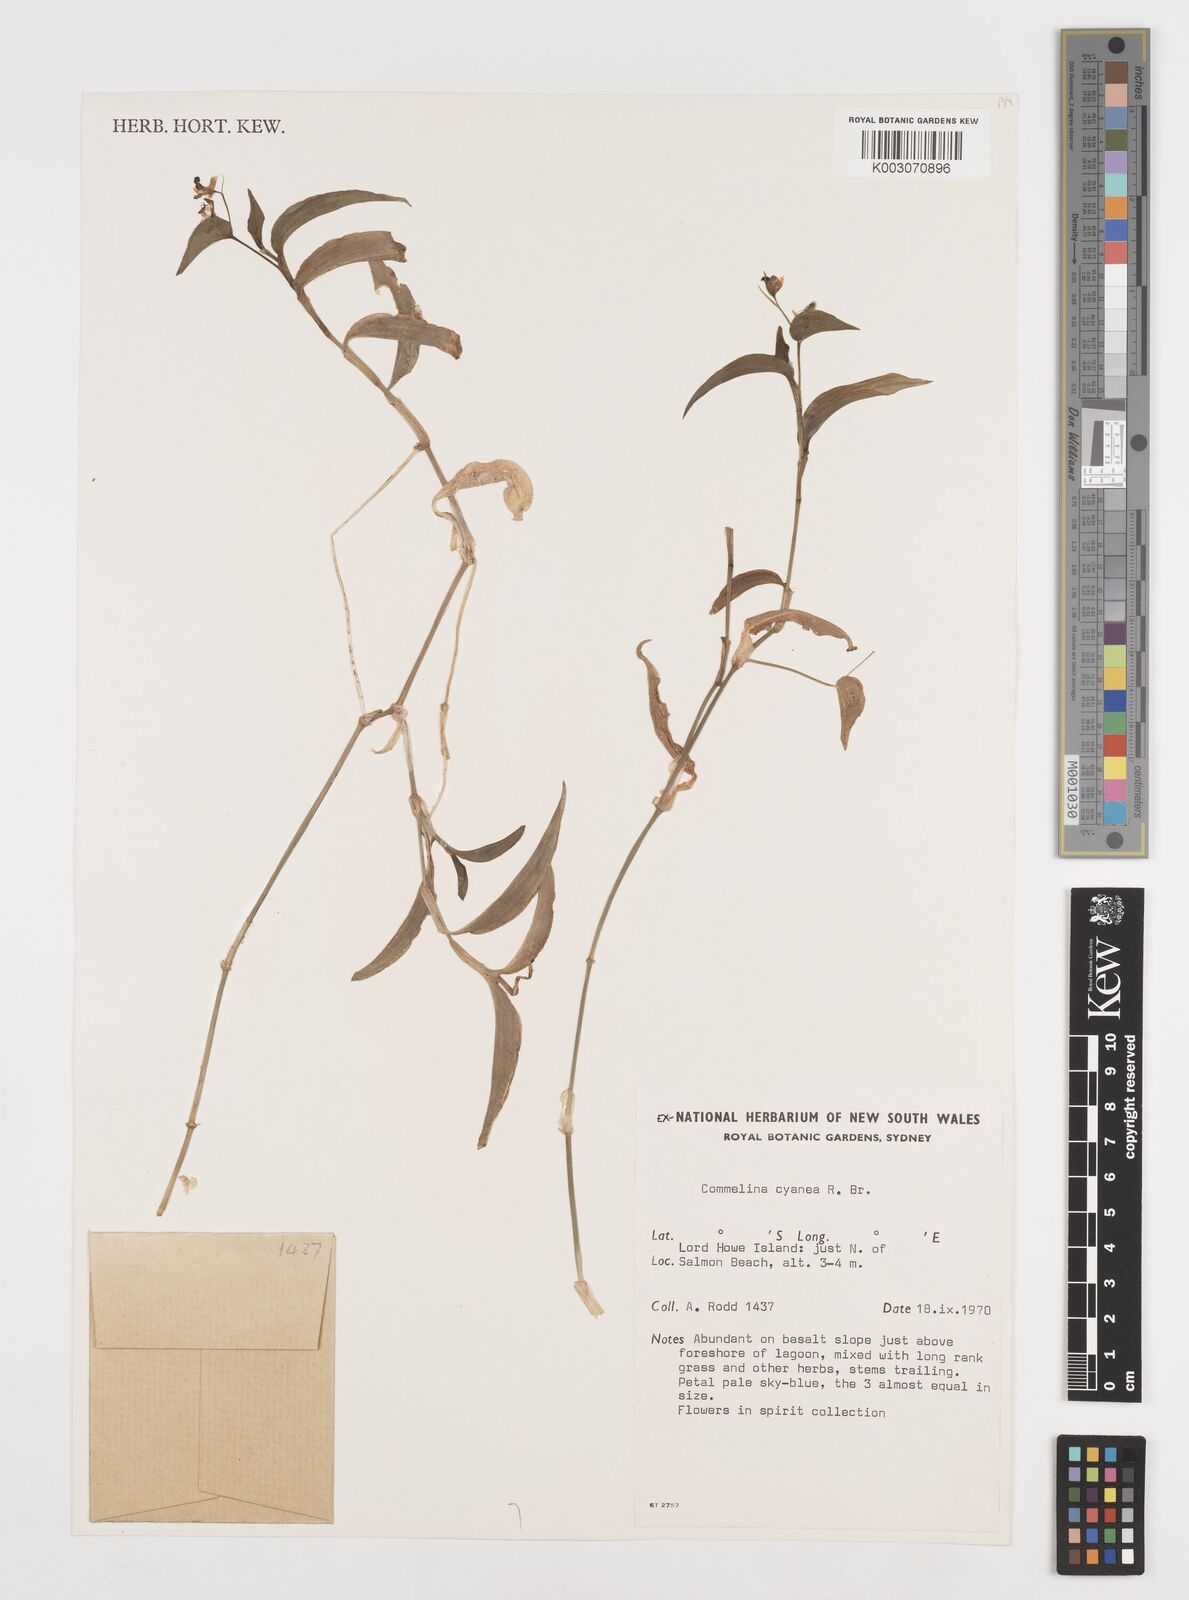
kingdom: Plantae
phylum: Tracheophyta
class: Liliopsida
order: Commelinales
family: Commelinaceae
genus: Commelina
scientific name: Commelina cyanea
